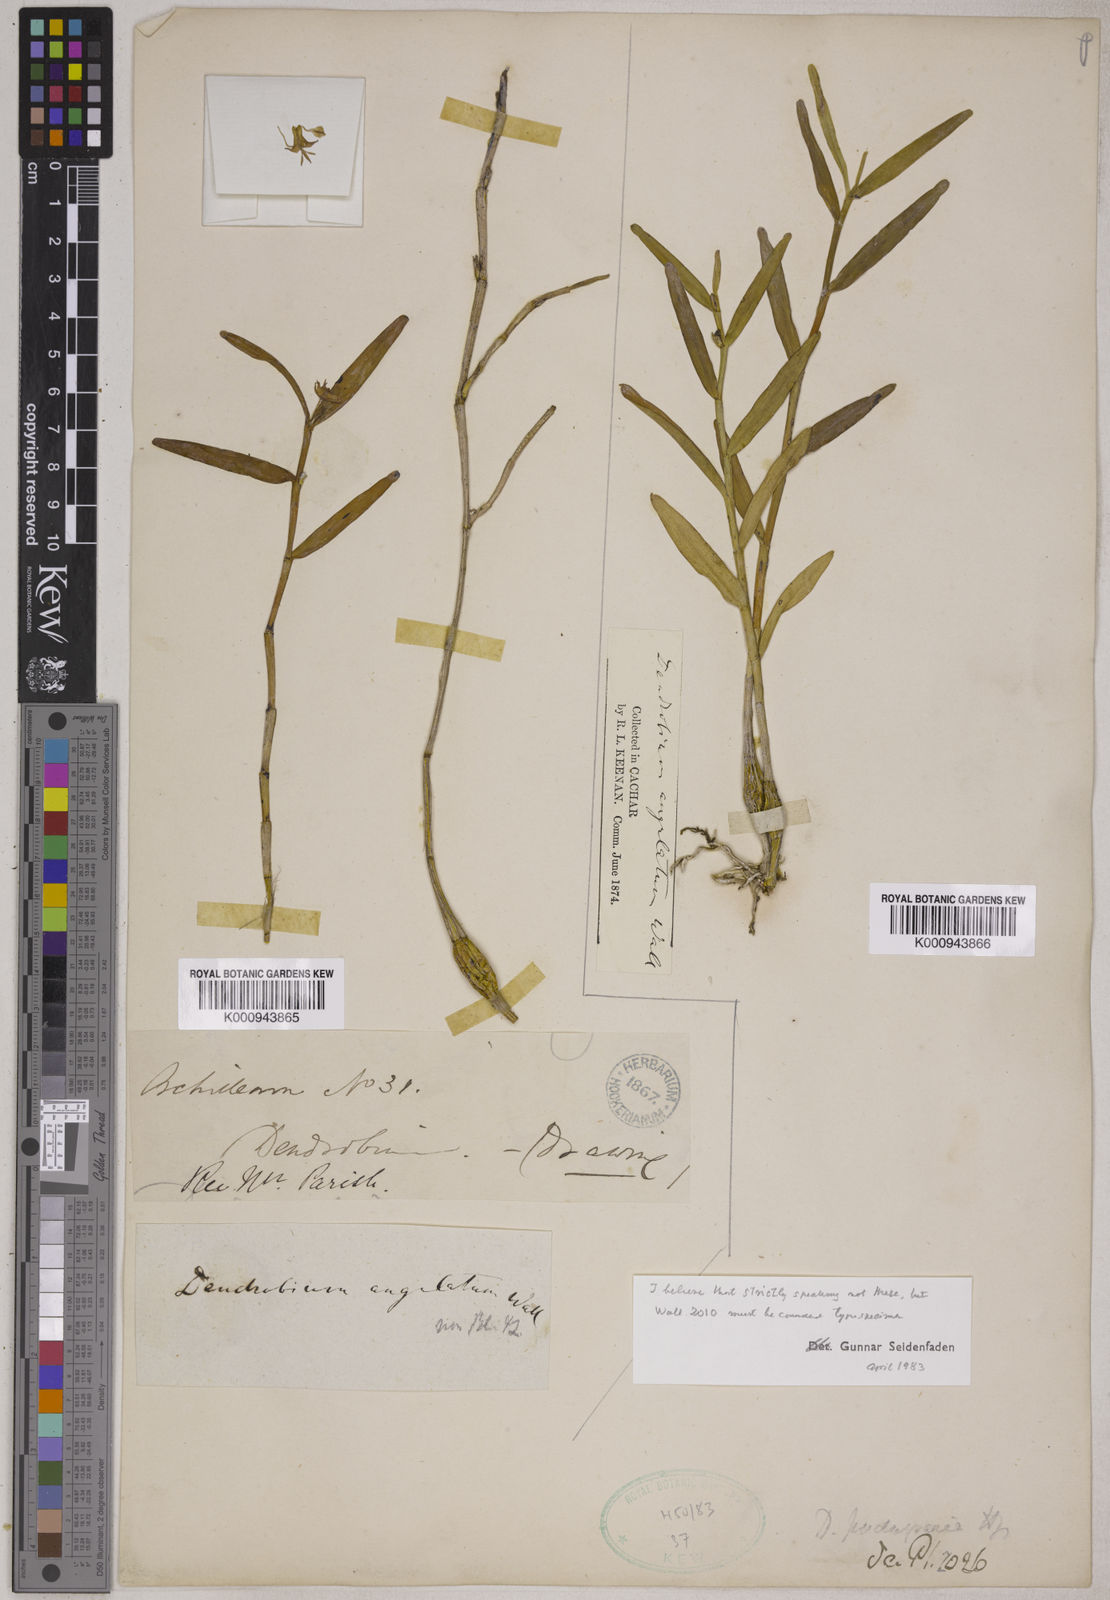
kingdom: Plantae
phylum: Tracheophyta
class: Liliopsida
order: Asparagales
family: Orchidaceae
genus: Dendrobium
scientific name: Dendrobium angulatum
